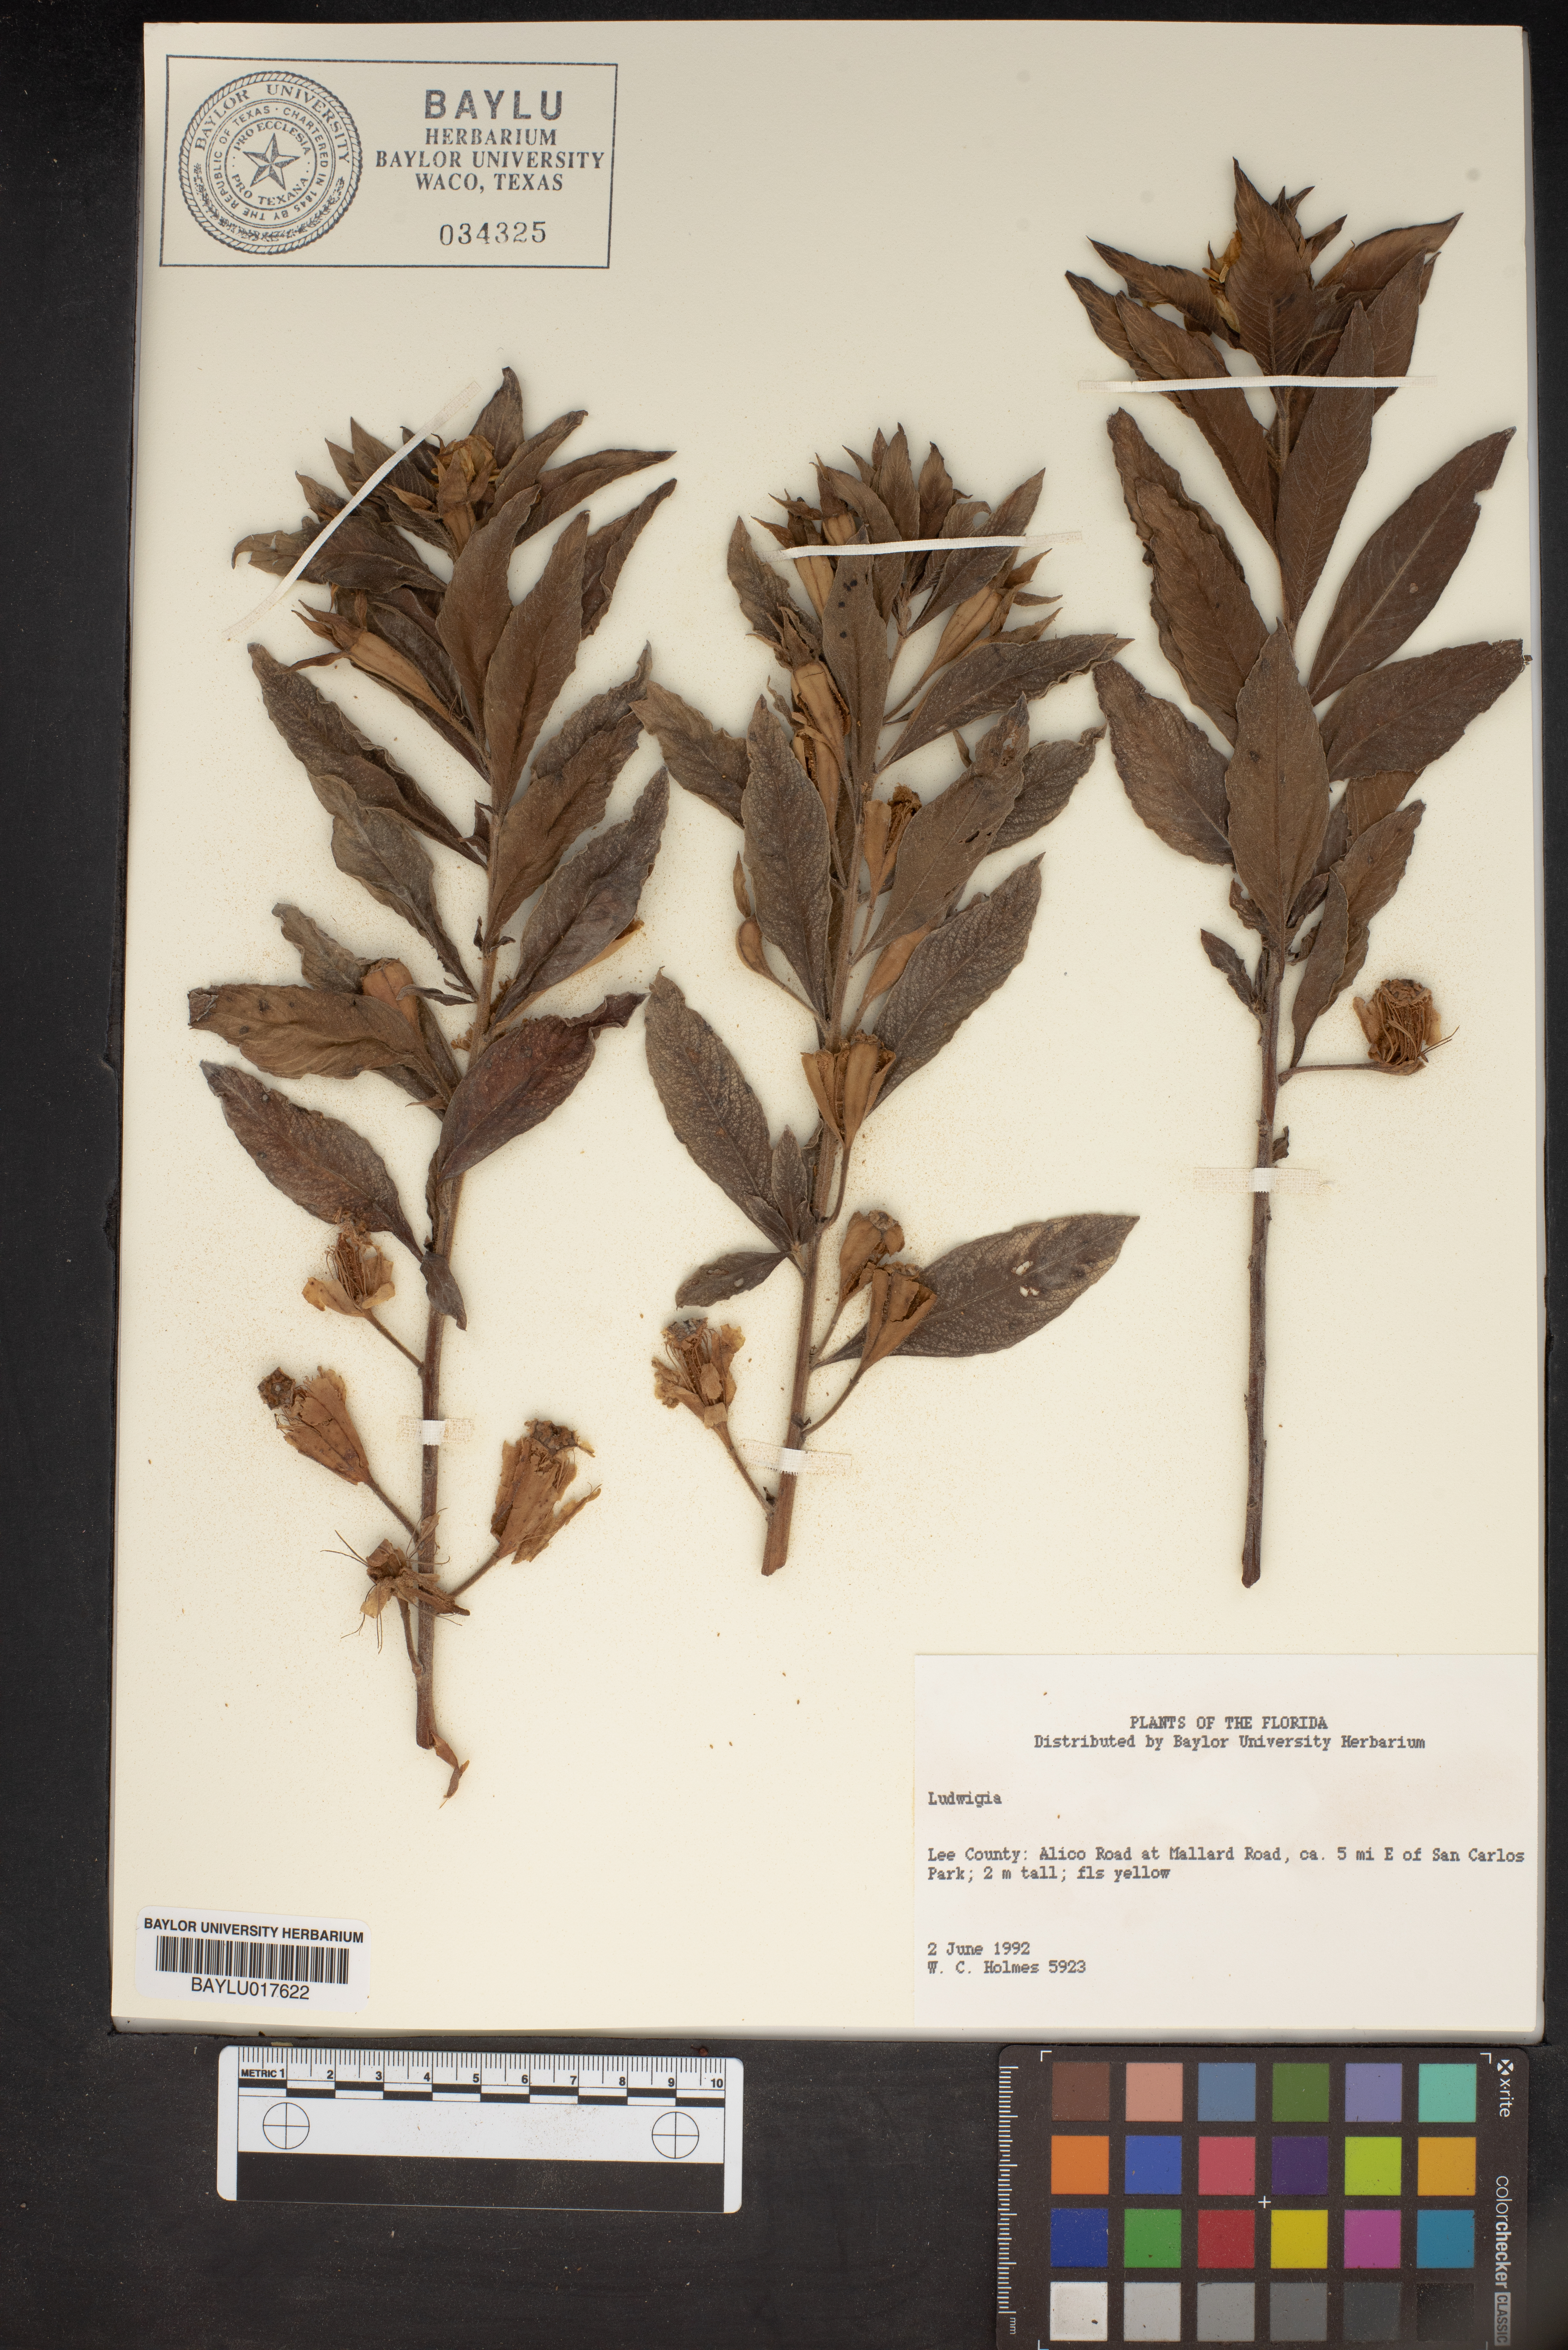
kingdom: Plantae
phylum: Tracheophyta
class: Magnoliopsida
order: Myrtales
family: Onagraceae
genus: Ludwigia
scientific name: Ludwigia
